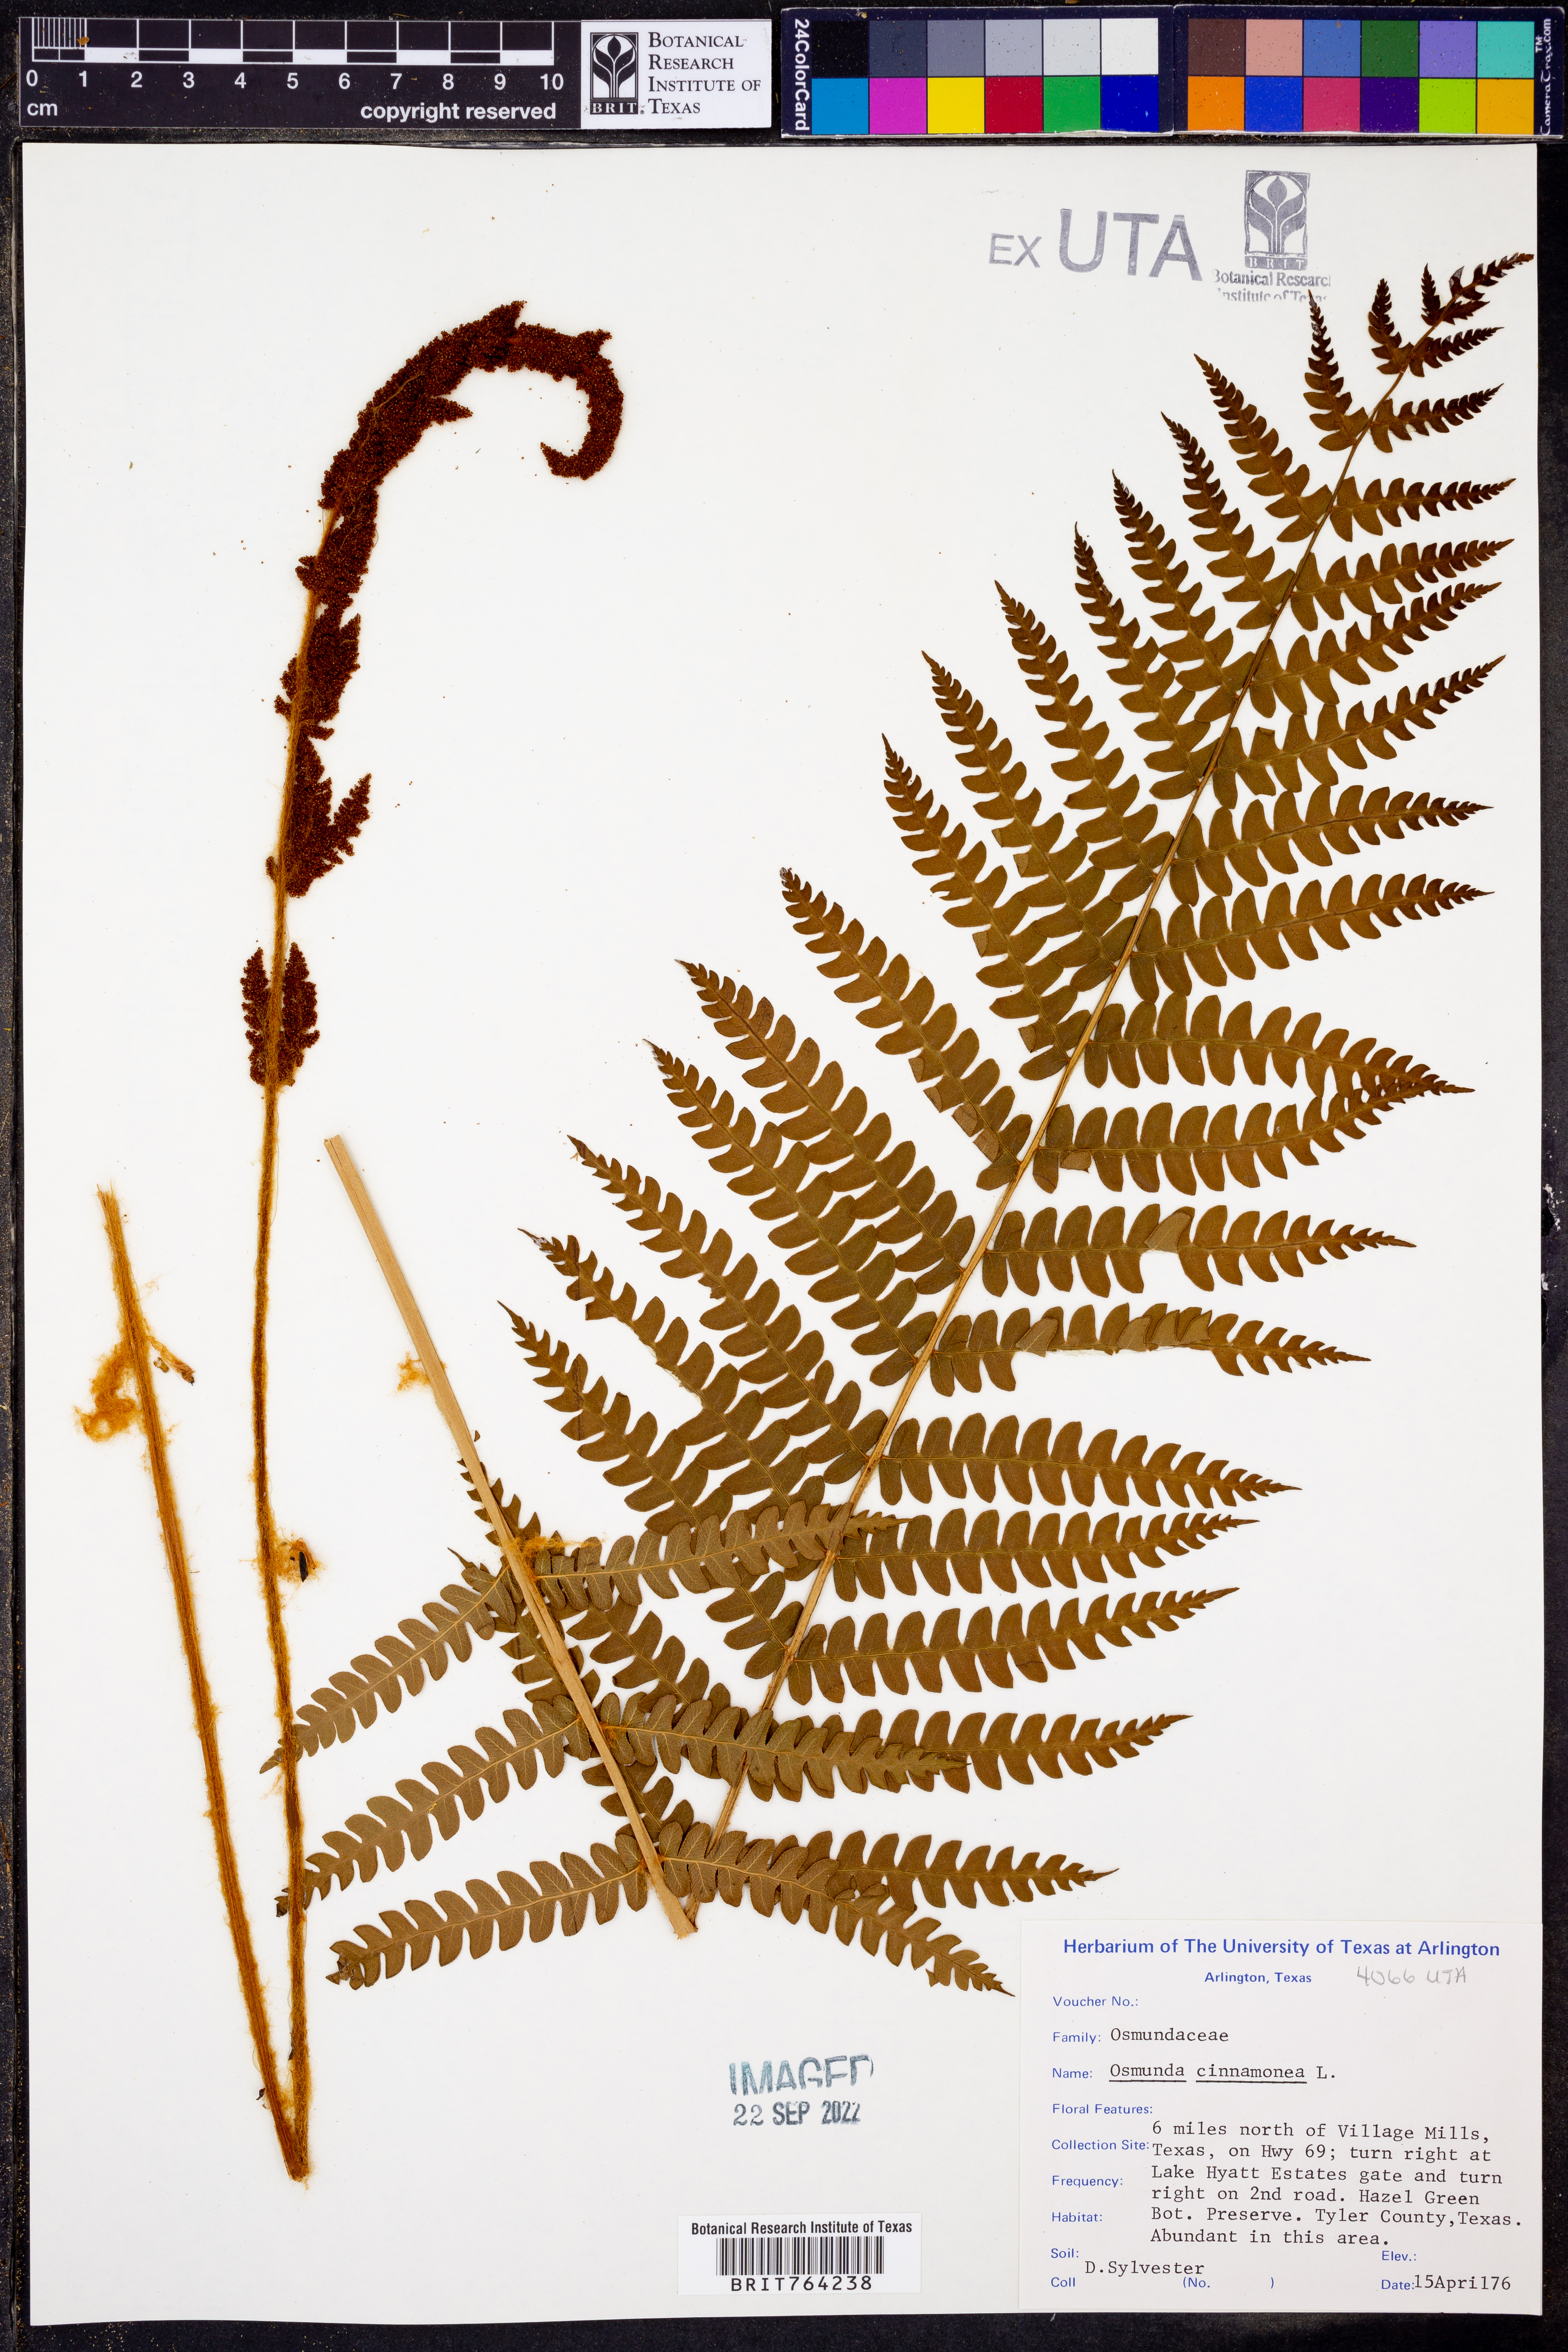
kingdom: Plantae
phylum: Tracheophyta
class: Polypodiopsida
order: Osmundales
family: Osmundaceae
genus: Osmundastrum
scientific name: Osmundastrum cinnamomeum
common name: Cinnamon fern
